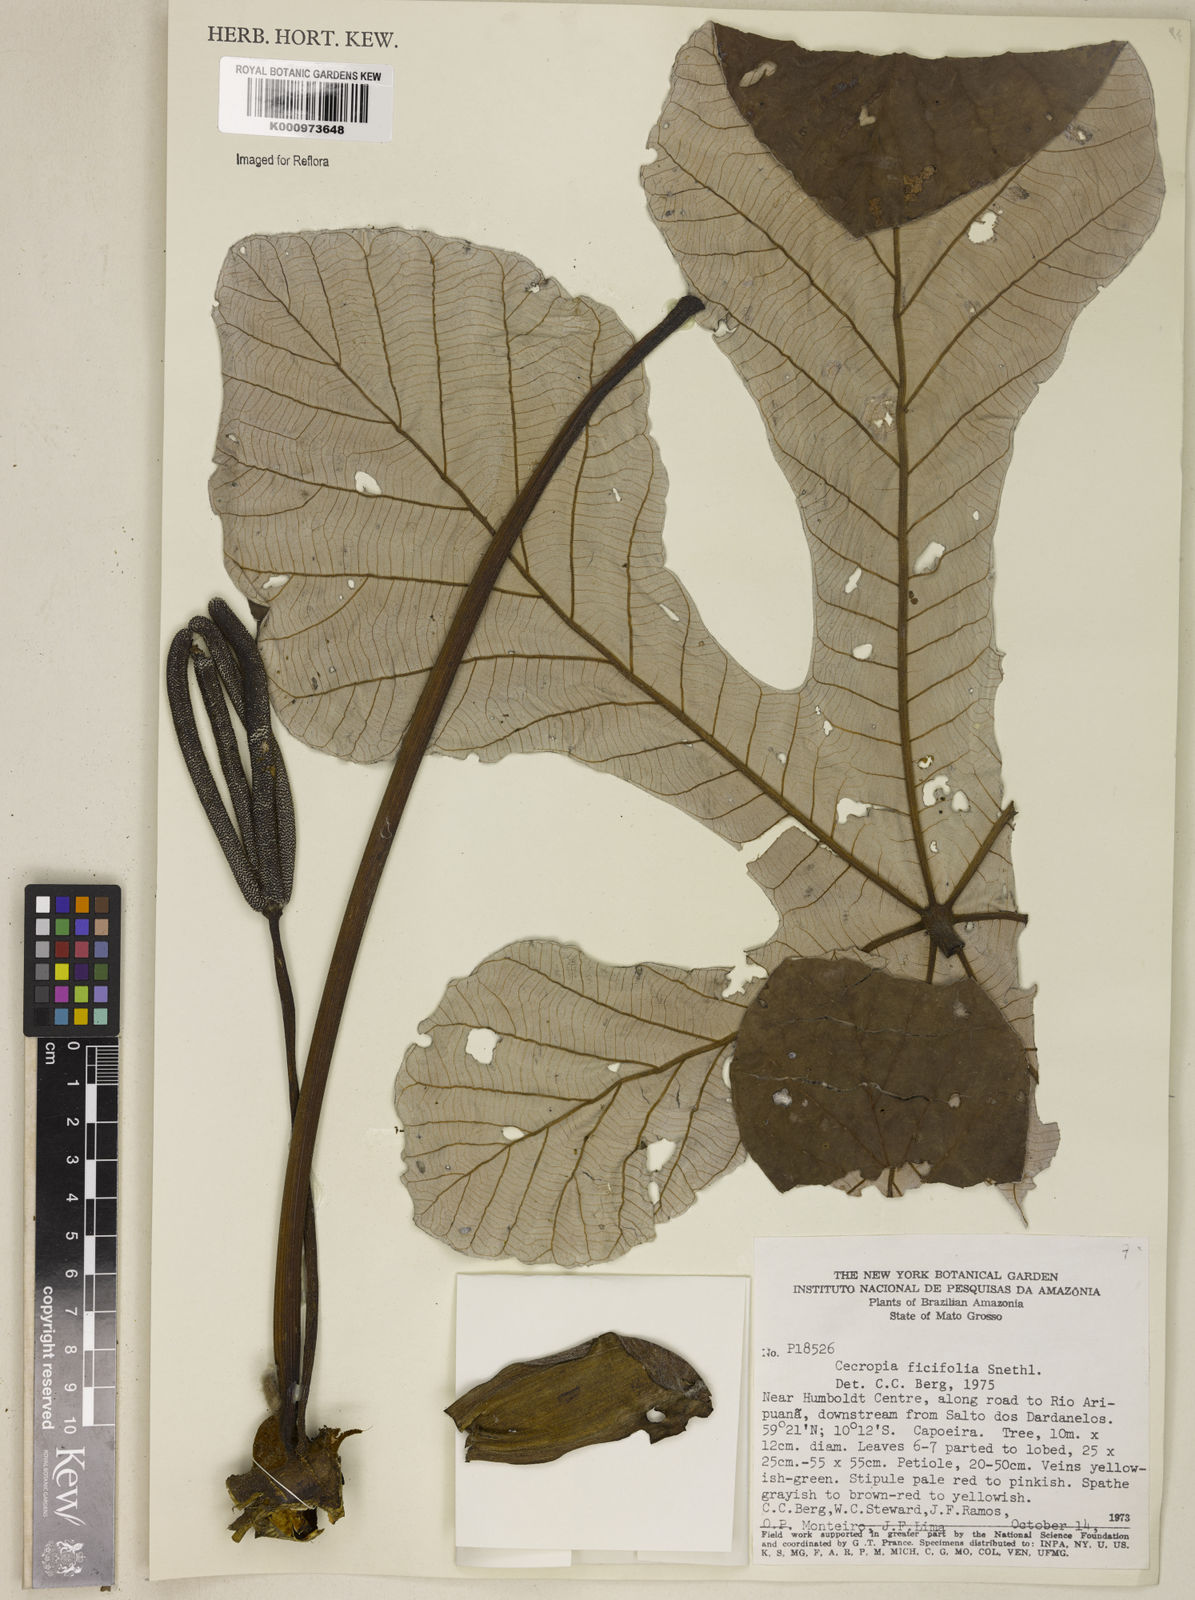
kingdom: Plantae
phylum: Tracheophyta
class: Magnoliopsida
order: Rosales
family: Urticaceae
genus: Cecropia
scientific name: Cecropia ficifolia
